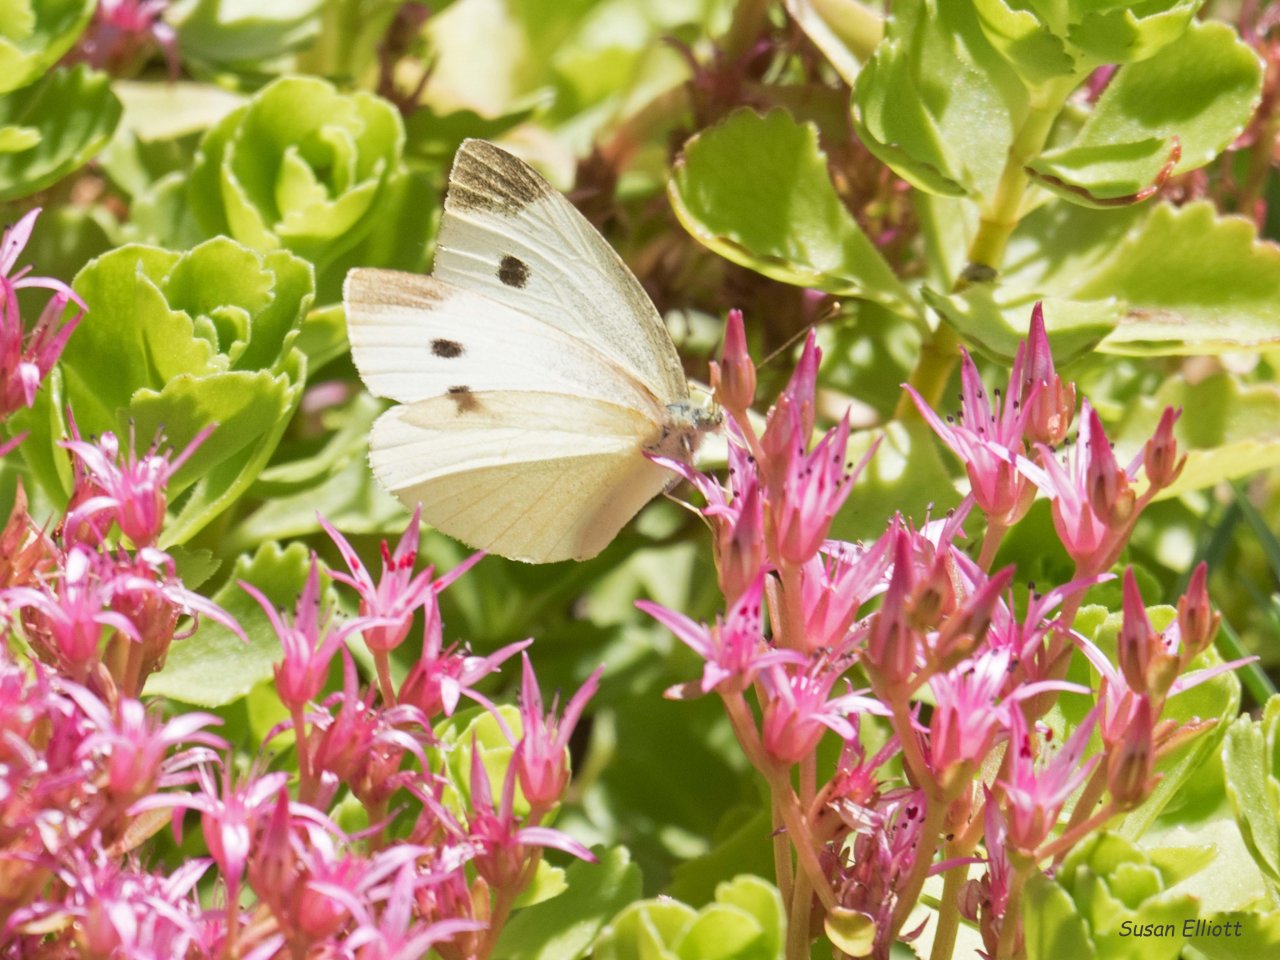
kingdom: Animalia
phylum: Arthropoda
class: Insecta
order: Lepidoptera
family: Pieridae
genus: Pieris
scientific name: Pieris rapae
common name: Cabbage White
